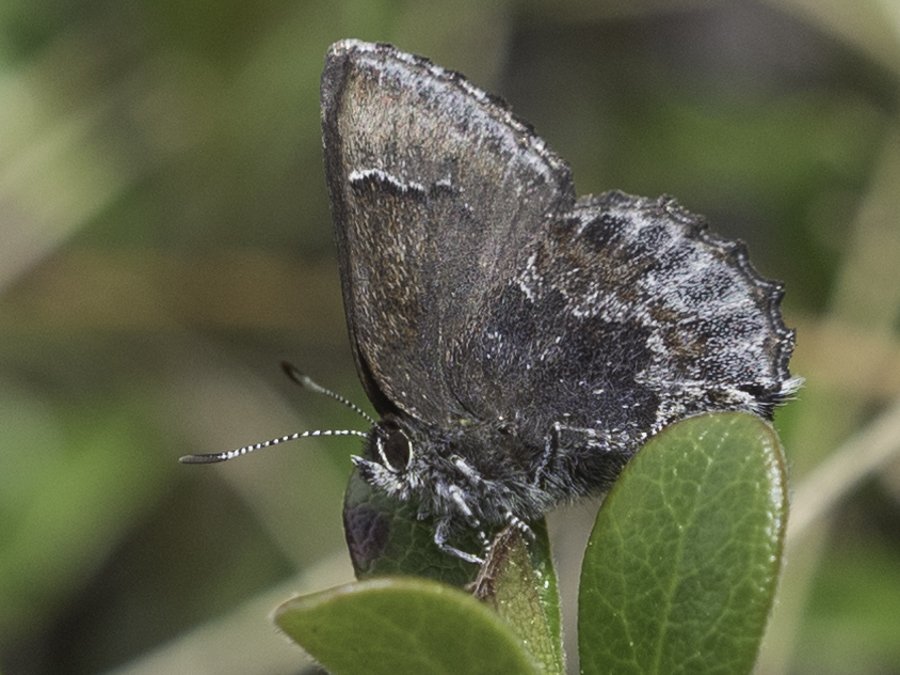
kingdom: Animalia
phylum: Arthropoda
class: Insecta
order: Lepidoptera
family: Lycaenidae
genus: Callophrys
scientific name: Callophrys polios
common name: Hoary Elfin
